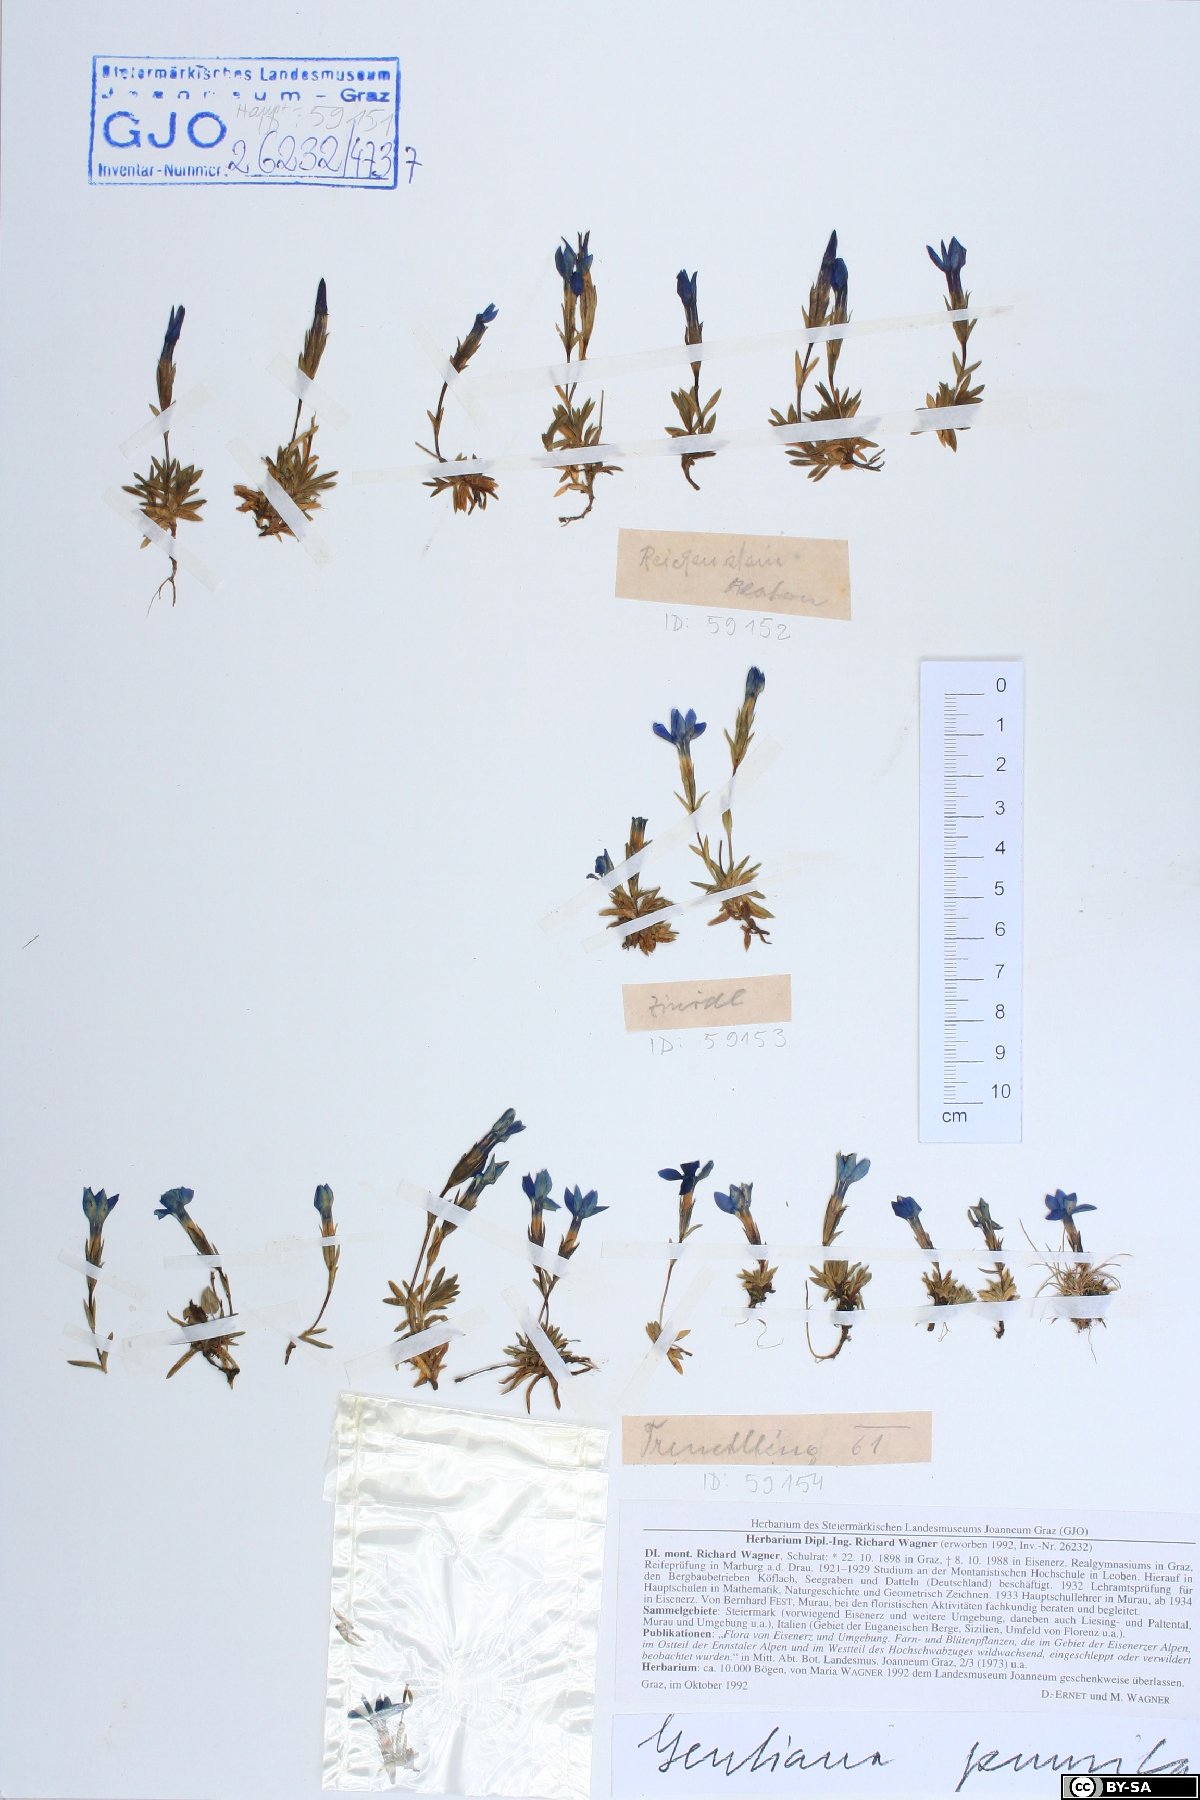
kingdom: Plantae
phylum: Tracheophyta
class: Magnoliopsida
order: Gentianales
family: Gentianaceae
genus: Gentiana
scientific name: Gentiana pumila
